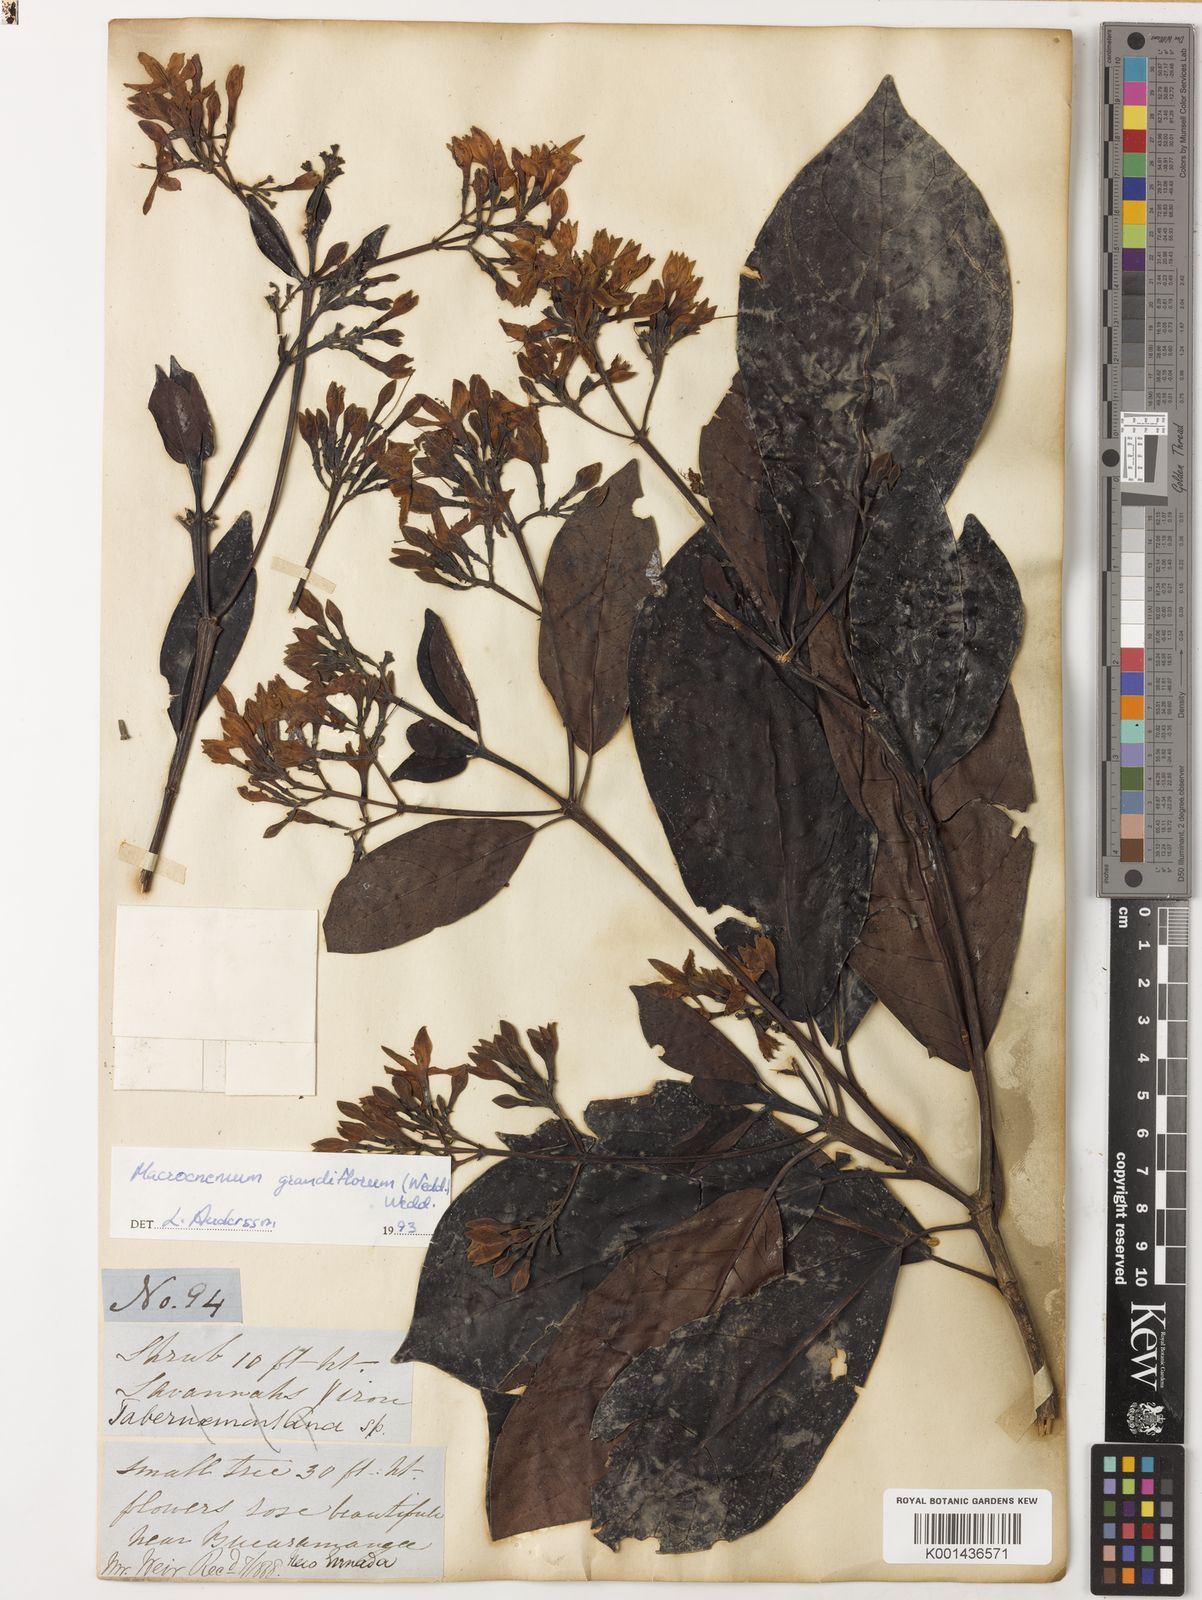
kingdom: Plantae
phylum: Tracheophyta
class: Magnoliopsida
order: Gentianales
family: Rubiaceae
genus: Macrocnemum
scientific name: Macrocnemum roseum
